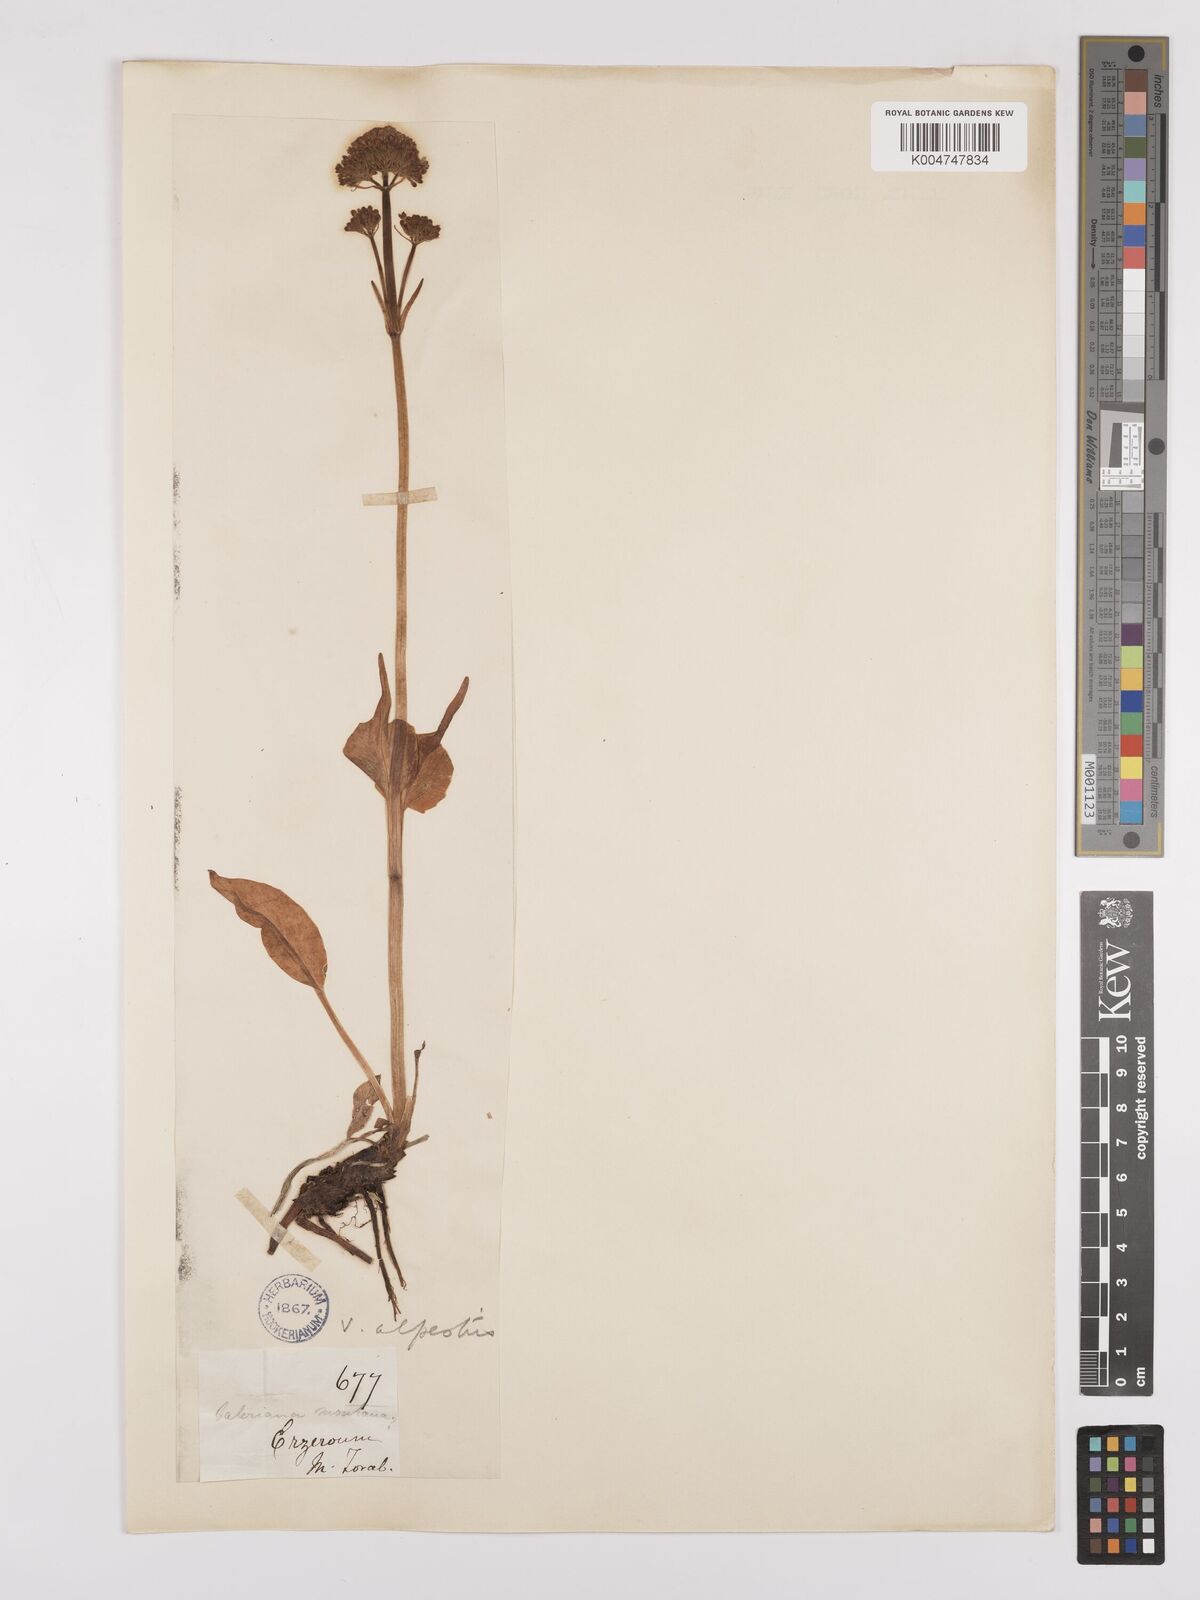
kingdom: Plantae
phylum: Tracheophyta
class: Magnoliopsida
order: Dipsacales
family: Caprifoliaceae
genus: Valeriana
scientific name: Valeriana alpestris
